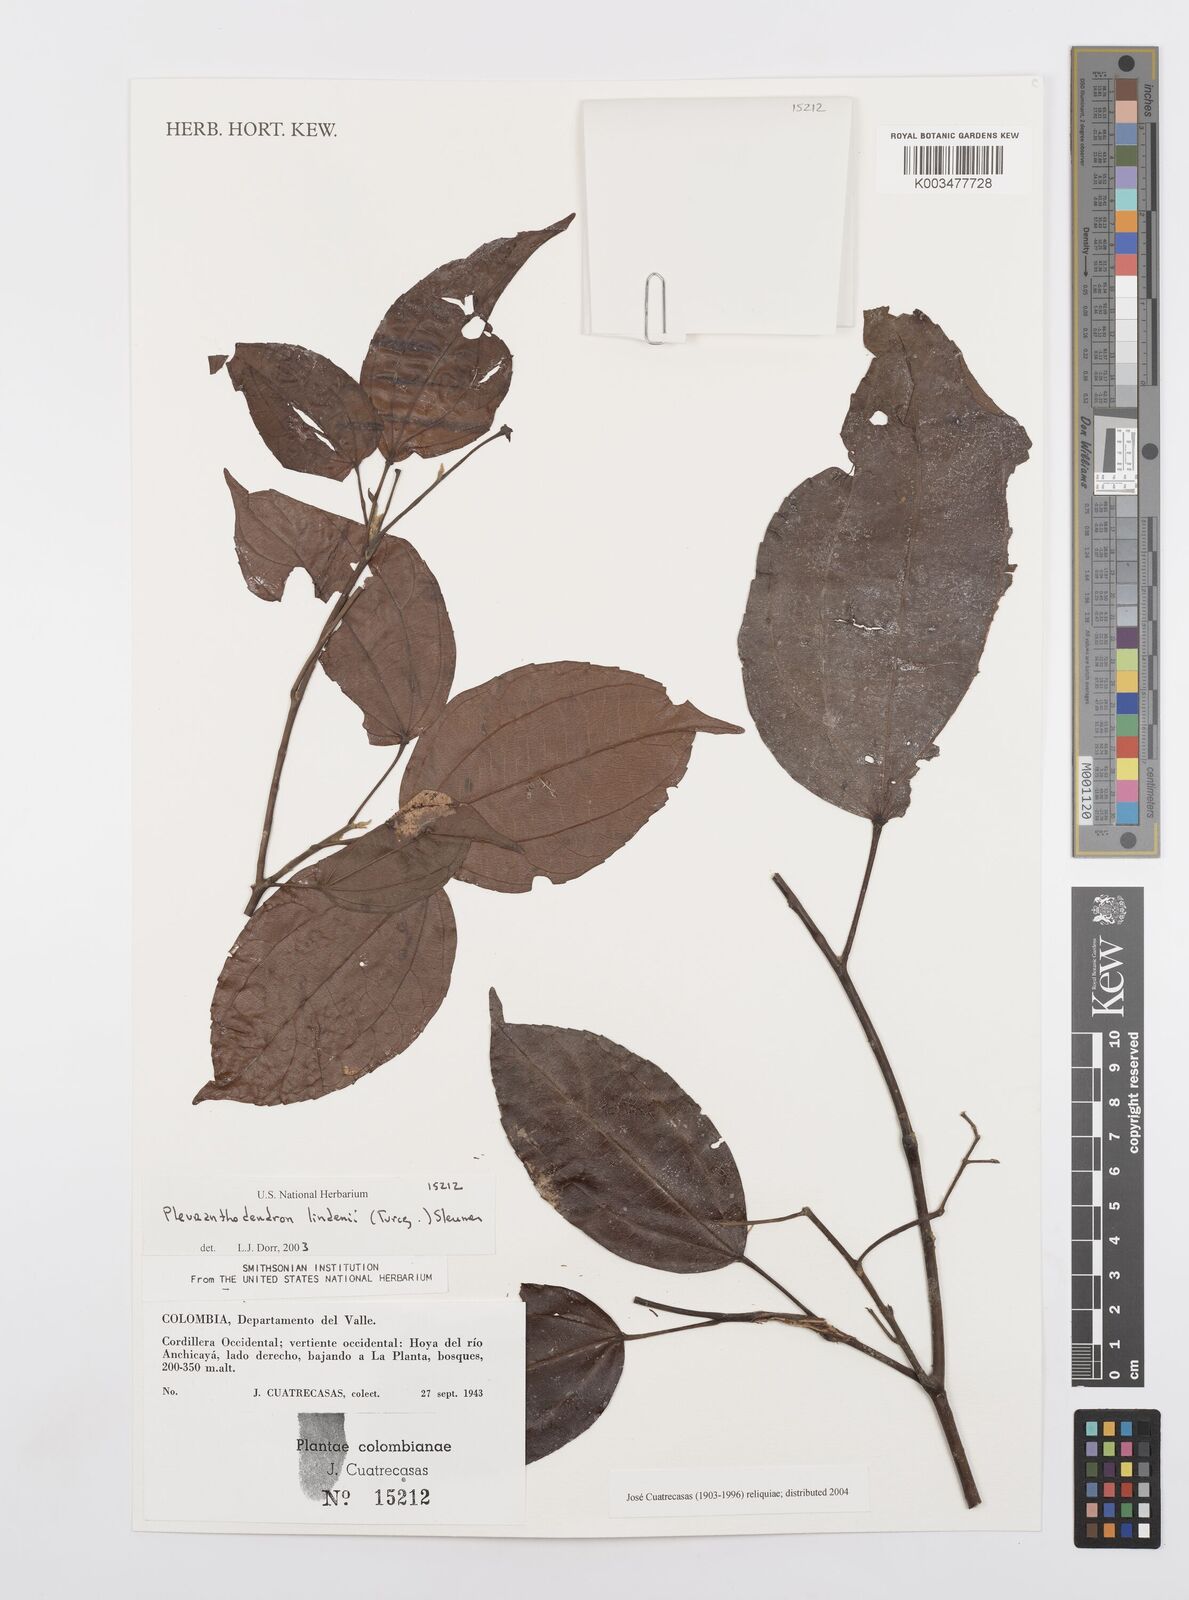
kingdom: Plantae
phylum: Tracheophyta
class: Magnoliopsida
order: Malpighiales
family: Salicaceae
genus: Pleuranthodendron
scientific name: Pleuranthodendron lindenii
